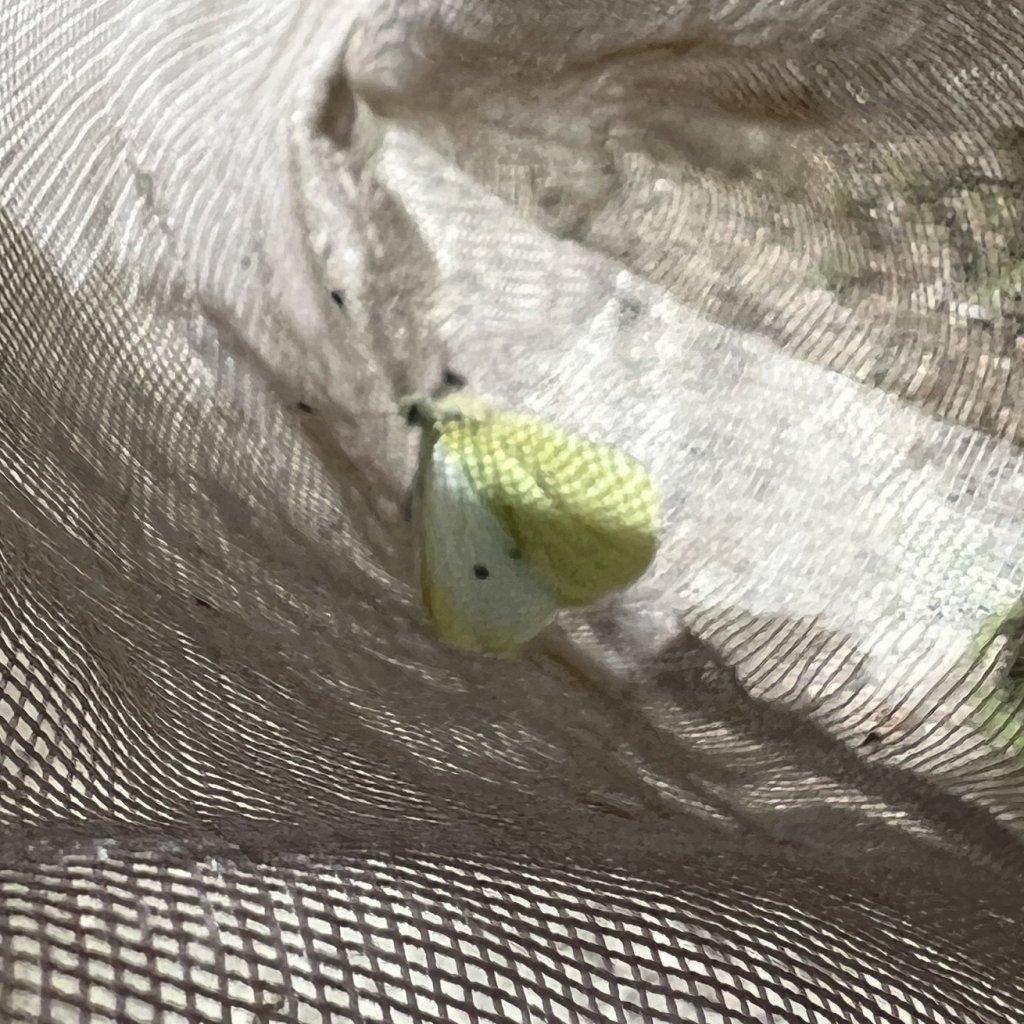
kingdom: Animalia
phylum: Arthropoda
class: Insecta
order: Lepidoptera
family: Pieridae
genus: Pieris
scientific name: Pieris rapae
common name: Cabbage White
